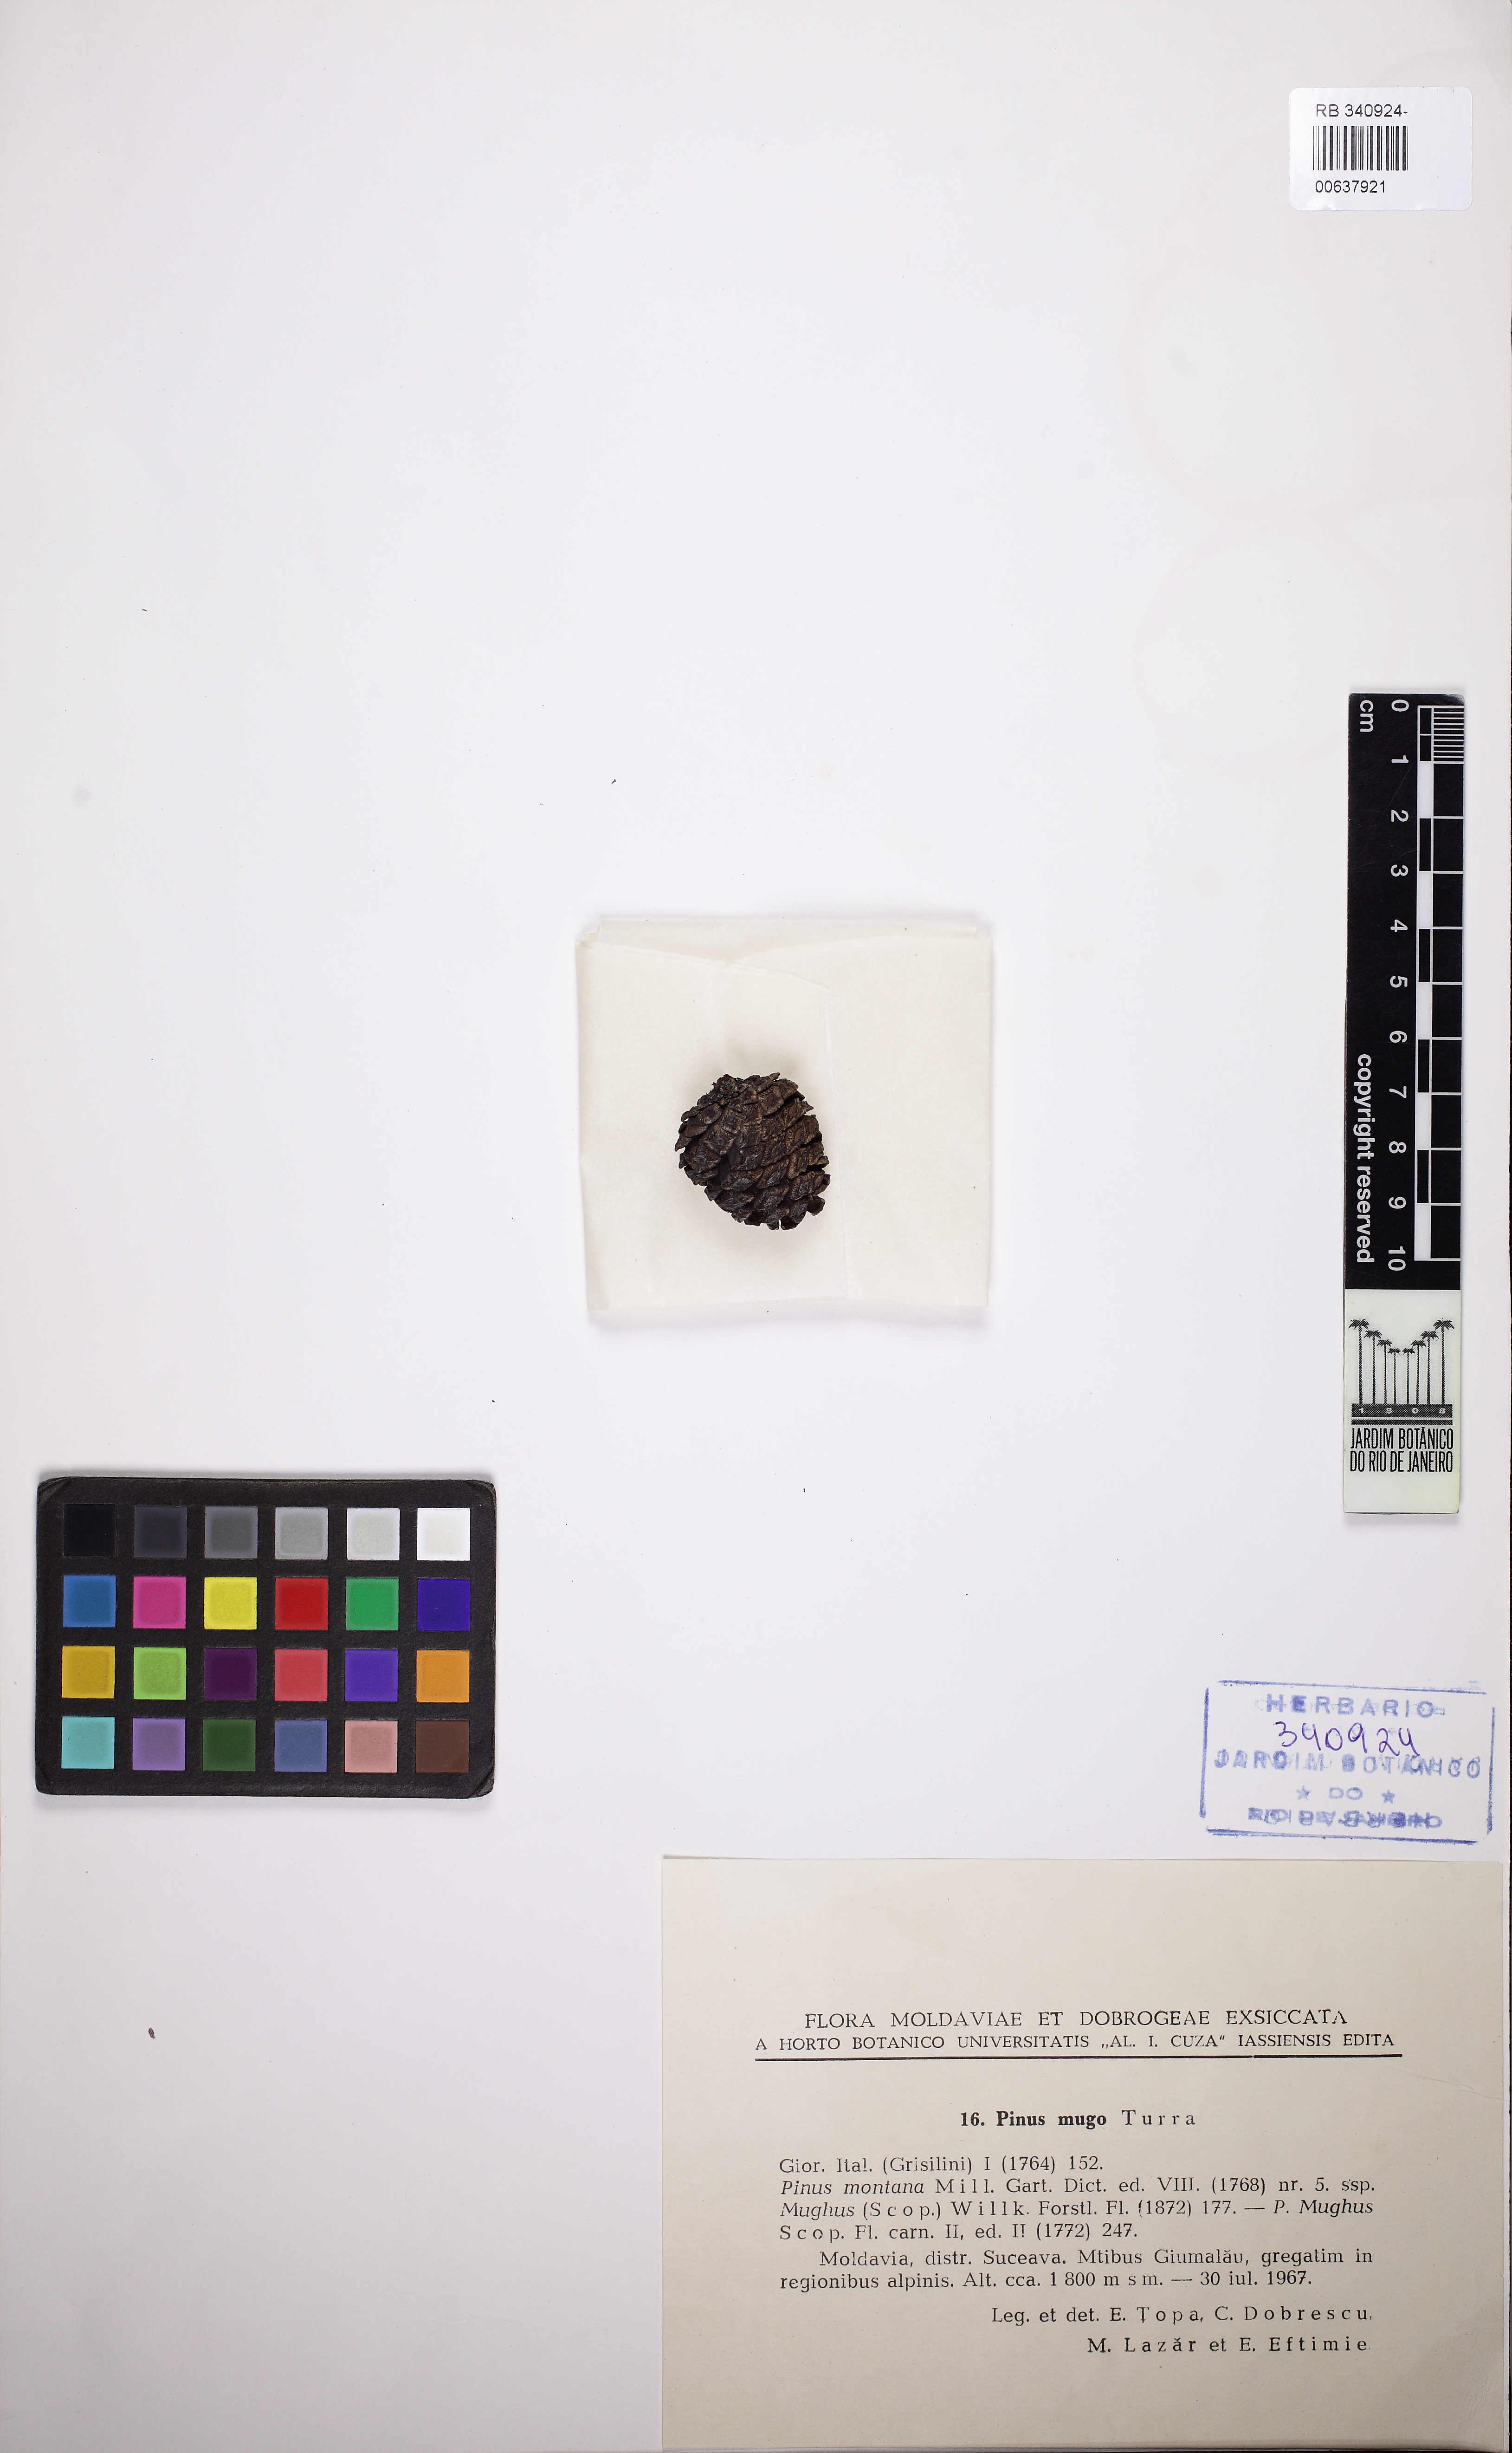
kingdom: Plantae
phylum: Tracheophyta
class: Pinopsida
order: Pinales
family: Pinaceae
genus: Pinus
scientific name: Pinus mugo
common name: Mugo pine
